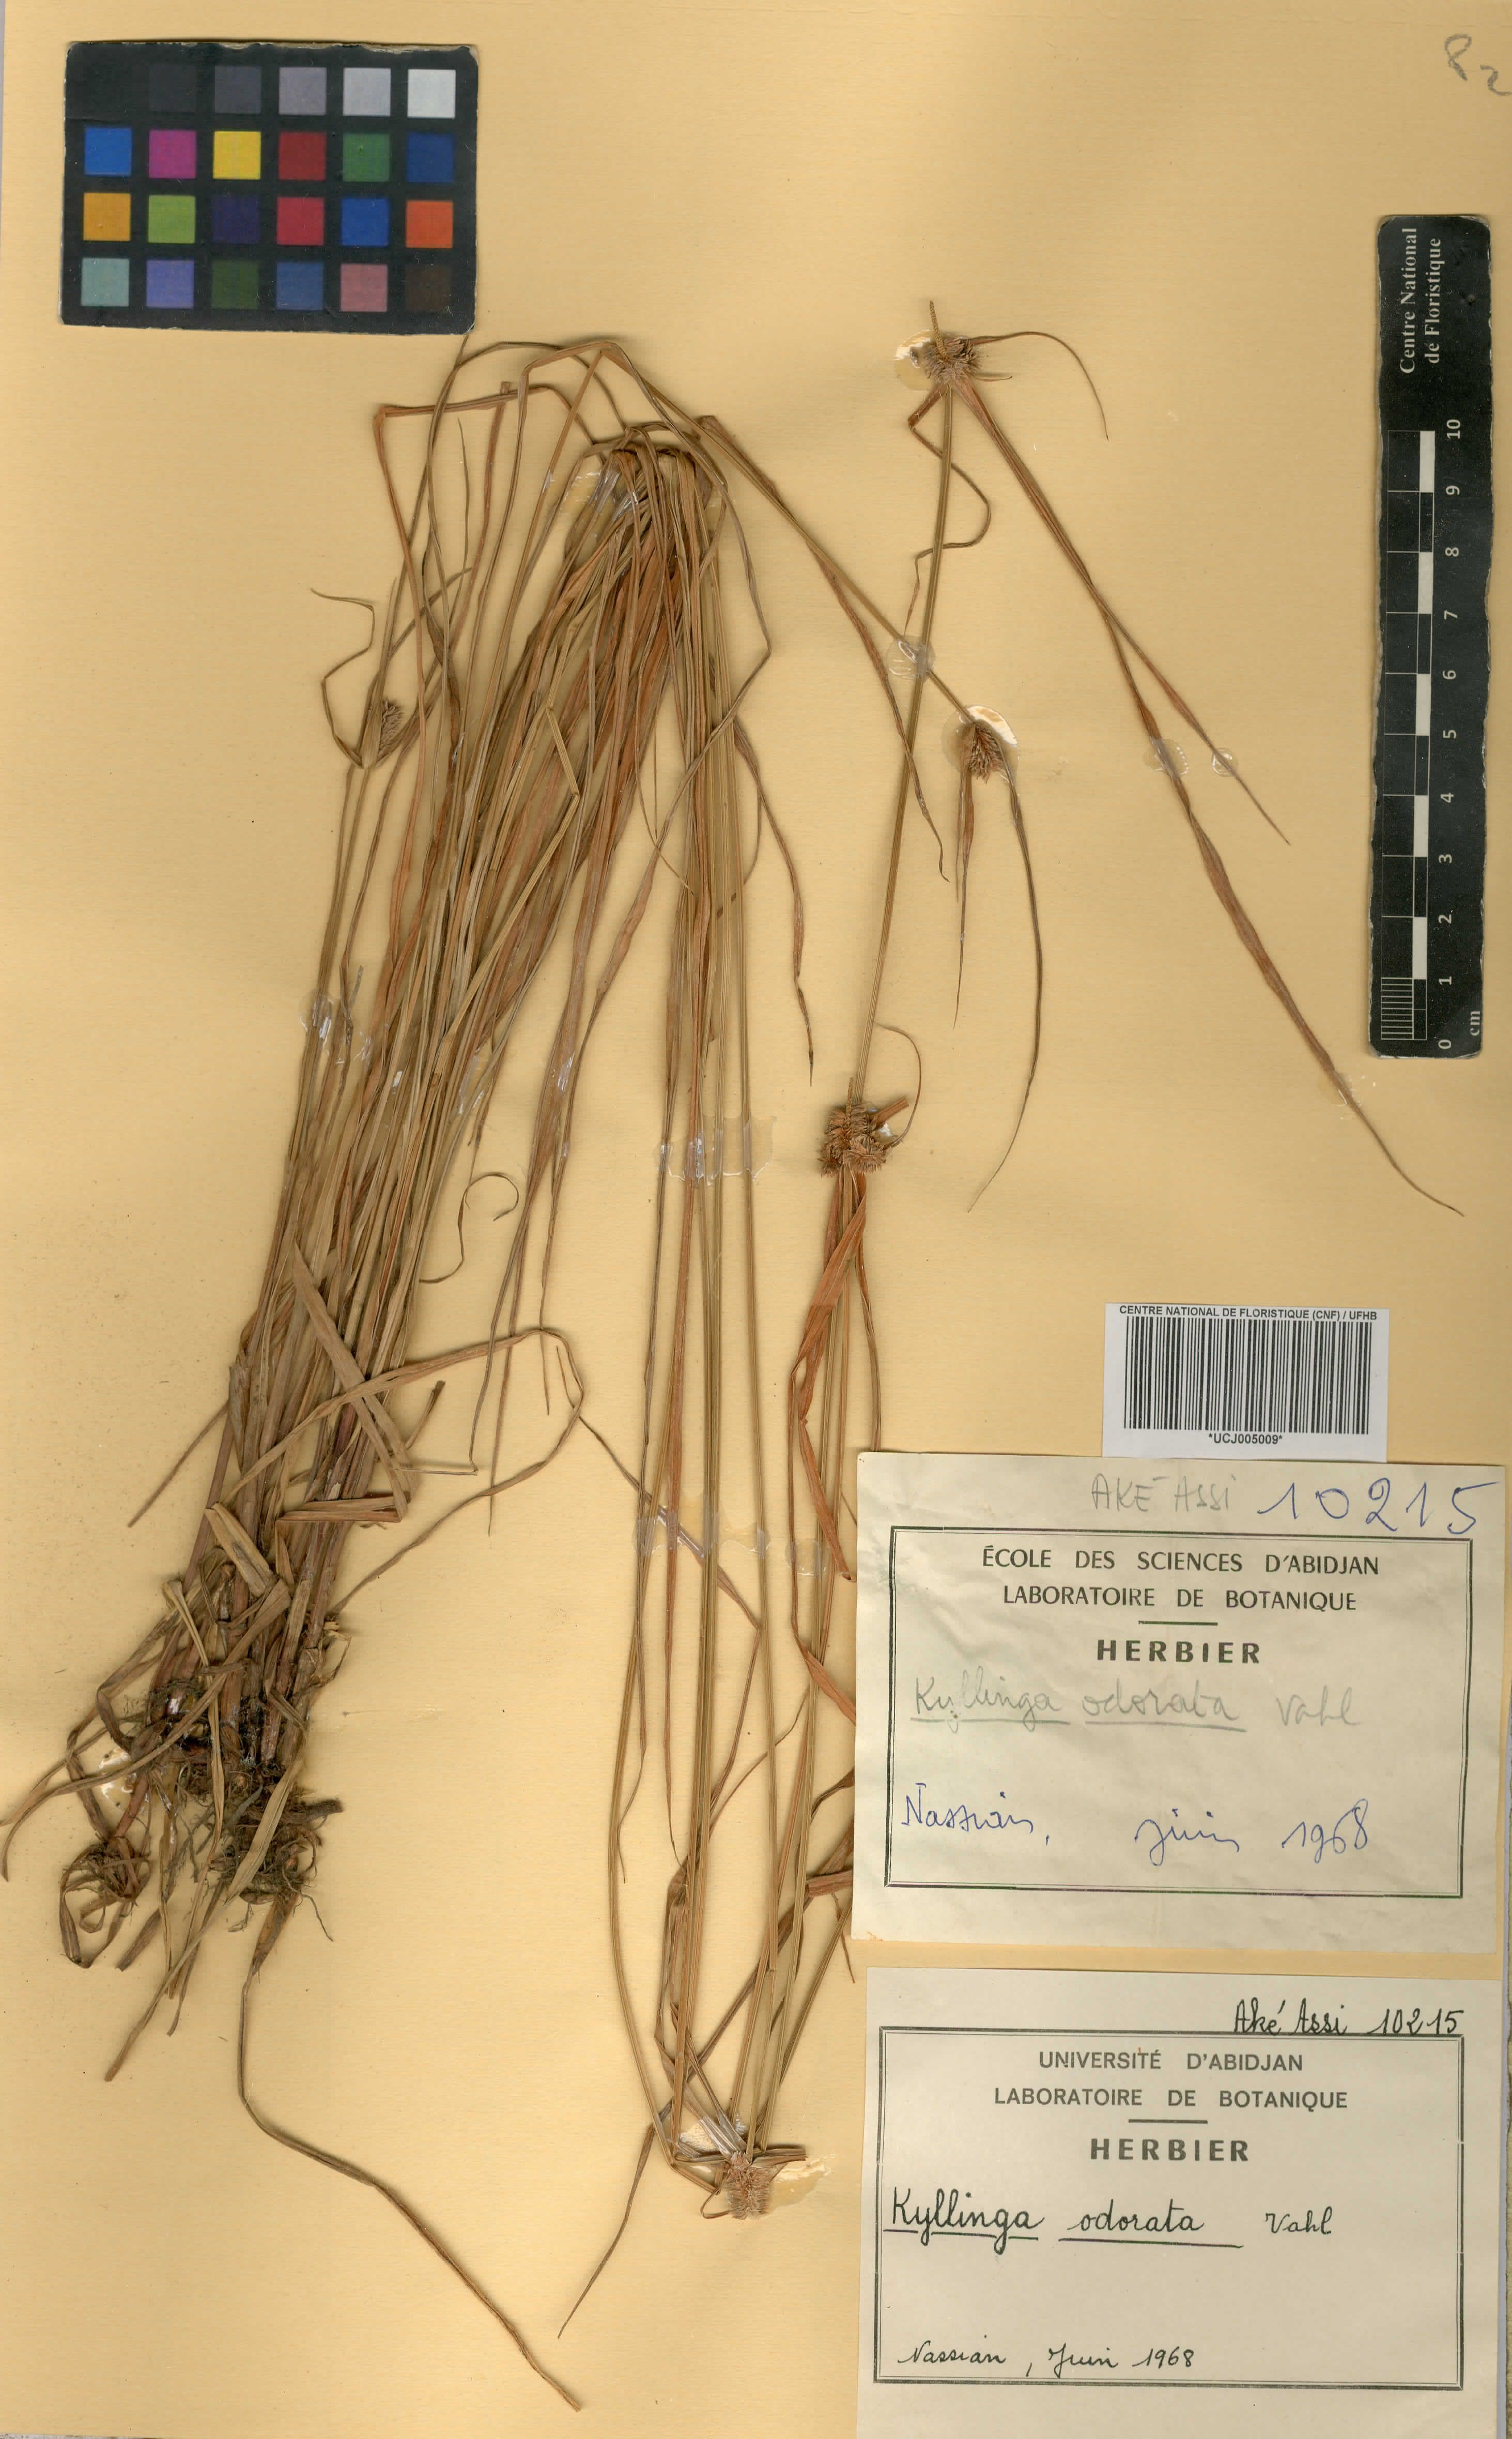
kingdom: Plantae
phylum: Tracheophyta
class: Liliopsida
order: Poales
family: Cyperaceae
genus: Cyperus
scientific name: Cyperus sesquiflorus
